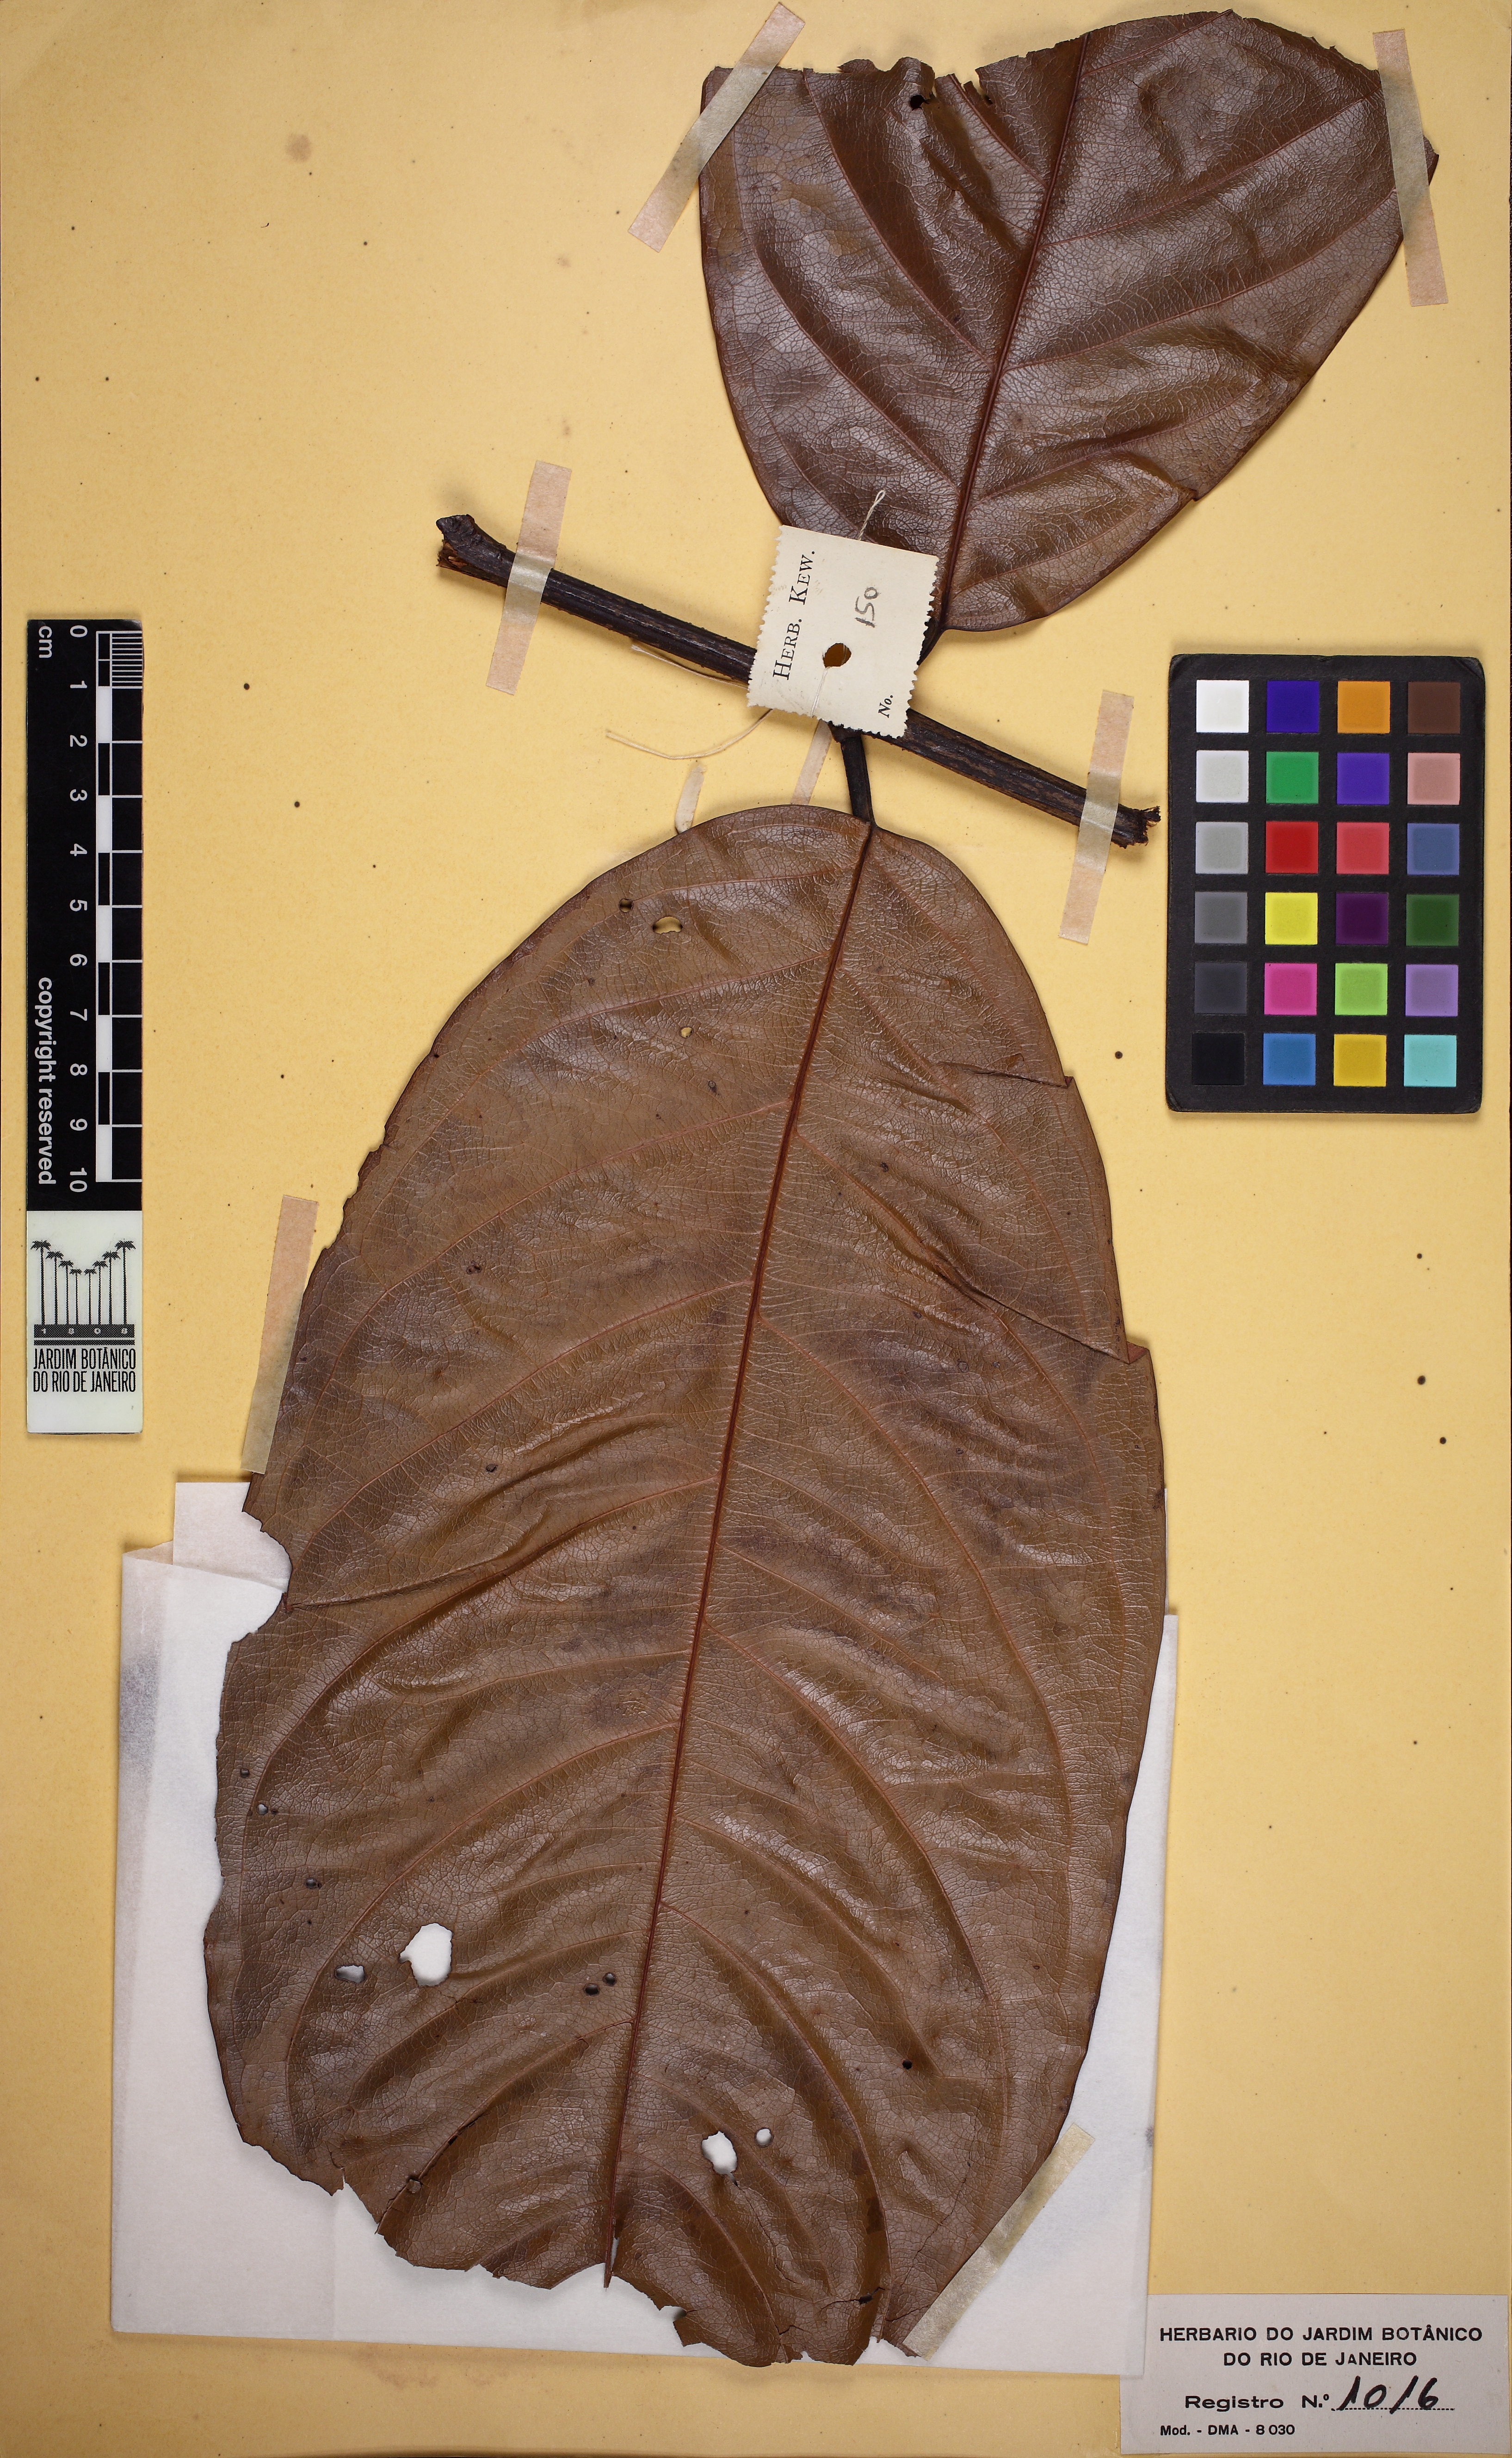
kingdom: Plantae
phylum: Tracheophyta
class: Magnoliopsida
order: Malpighiales
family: Malpighiaceae
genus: Heteropterys
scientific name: Heteropterys reticulata
